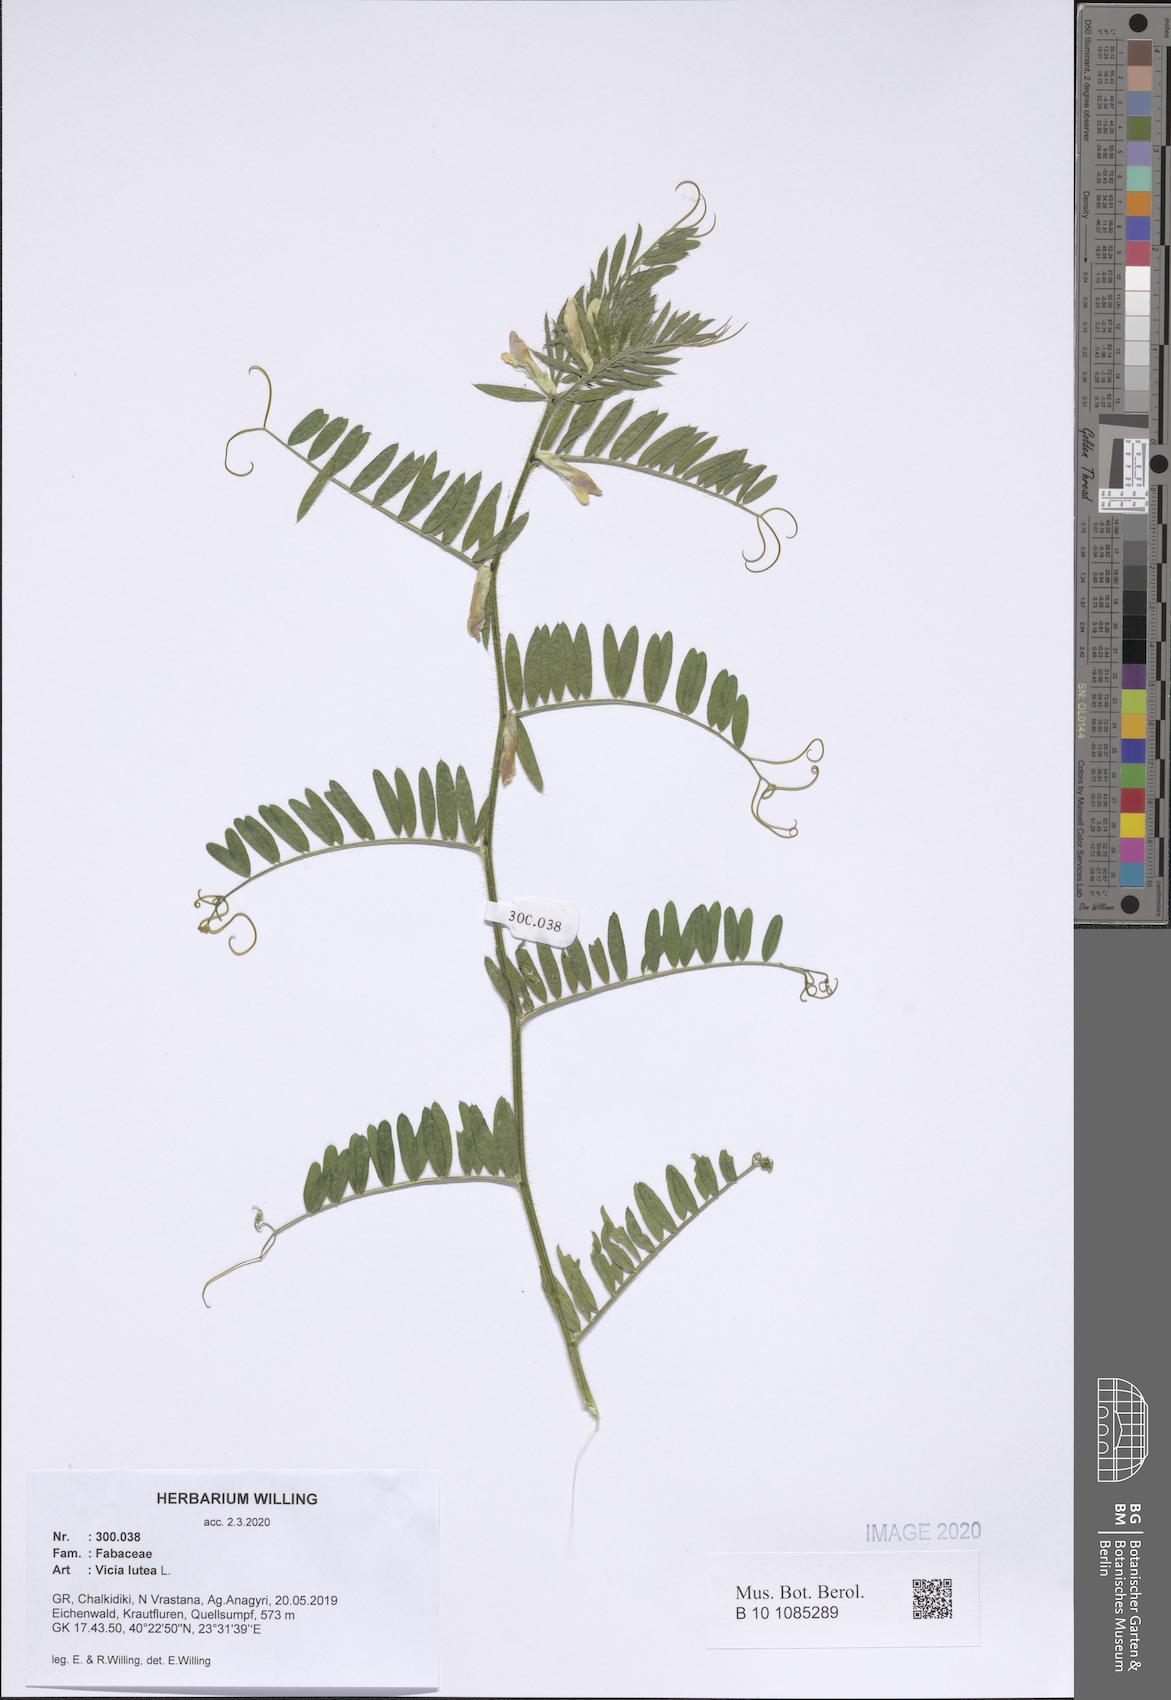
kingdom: Plantae
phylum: Tracheophyta
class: Magnoliopsida
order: Fabales
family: Fabaceae
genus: Vicia
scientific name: Vicia lutea
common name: Smooth yellow vetch
